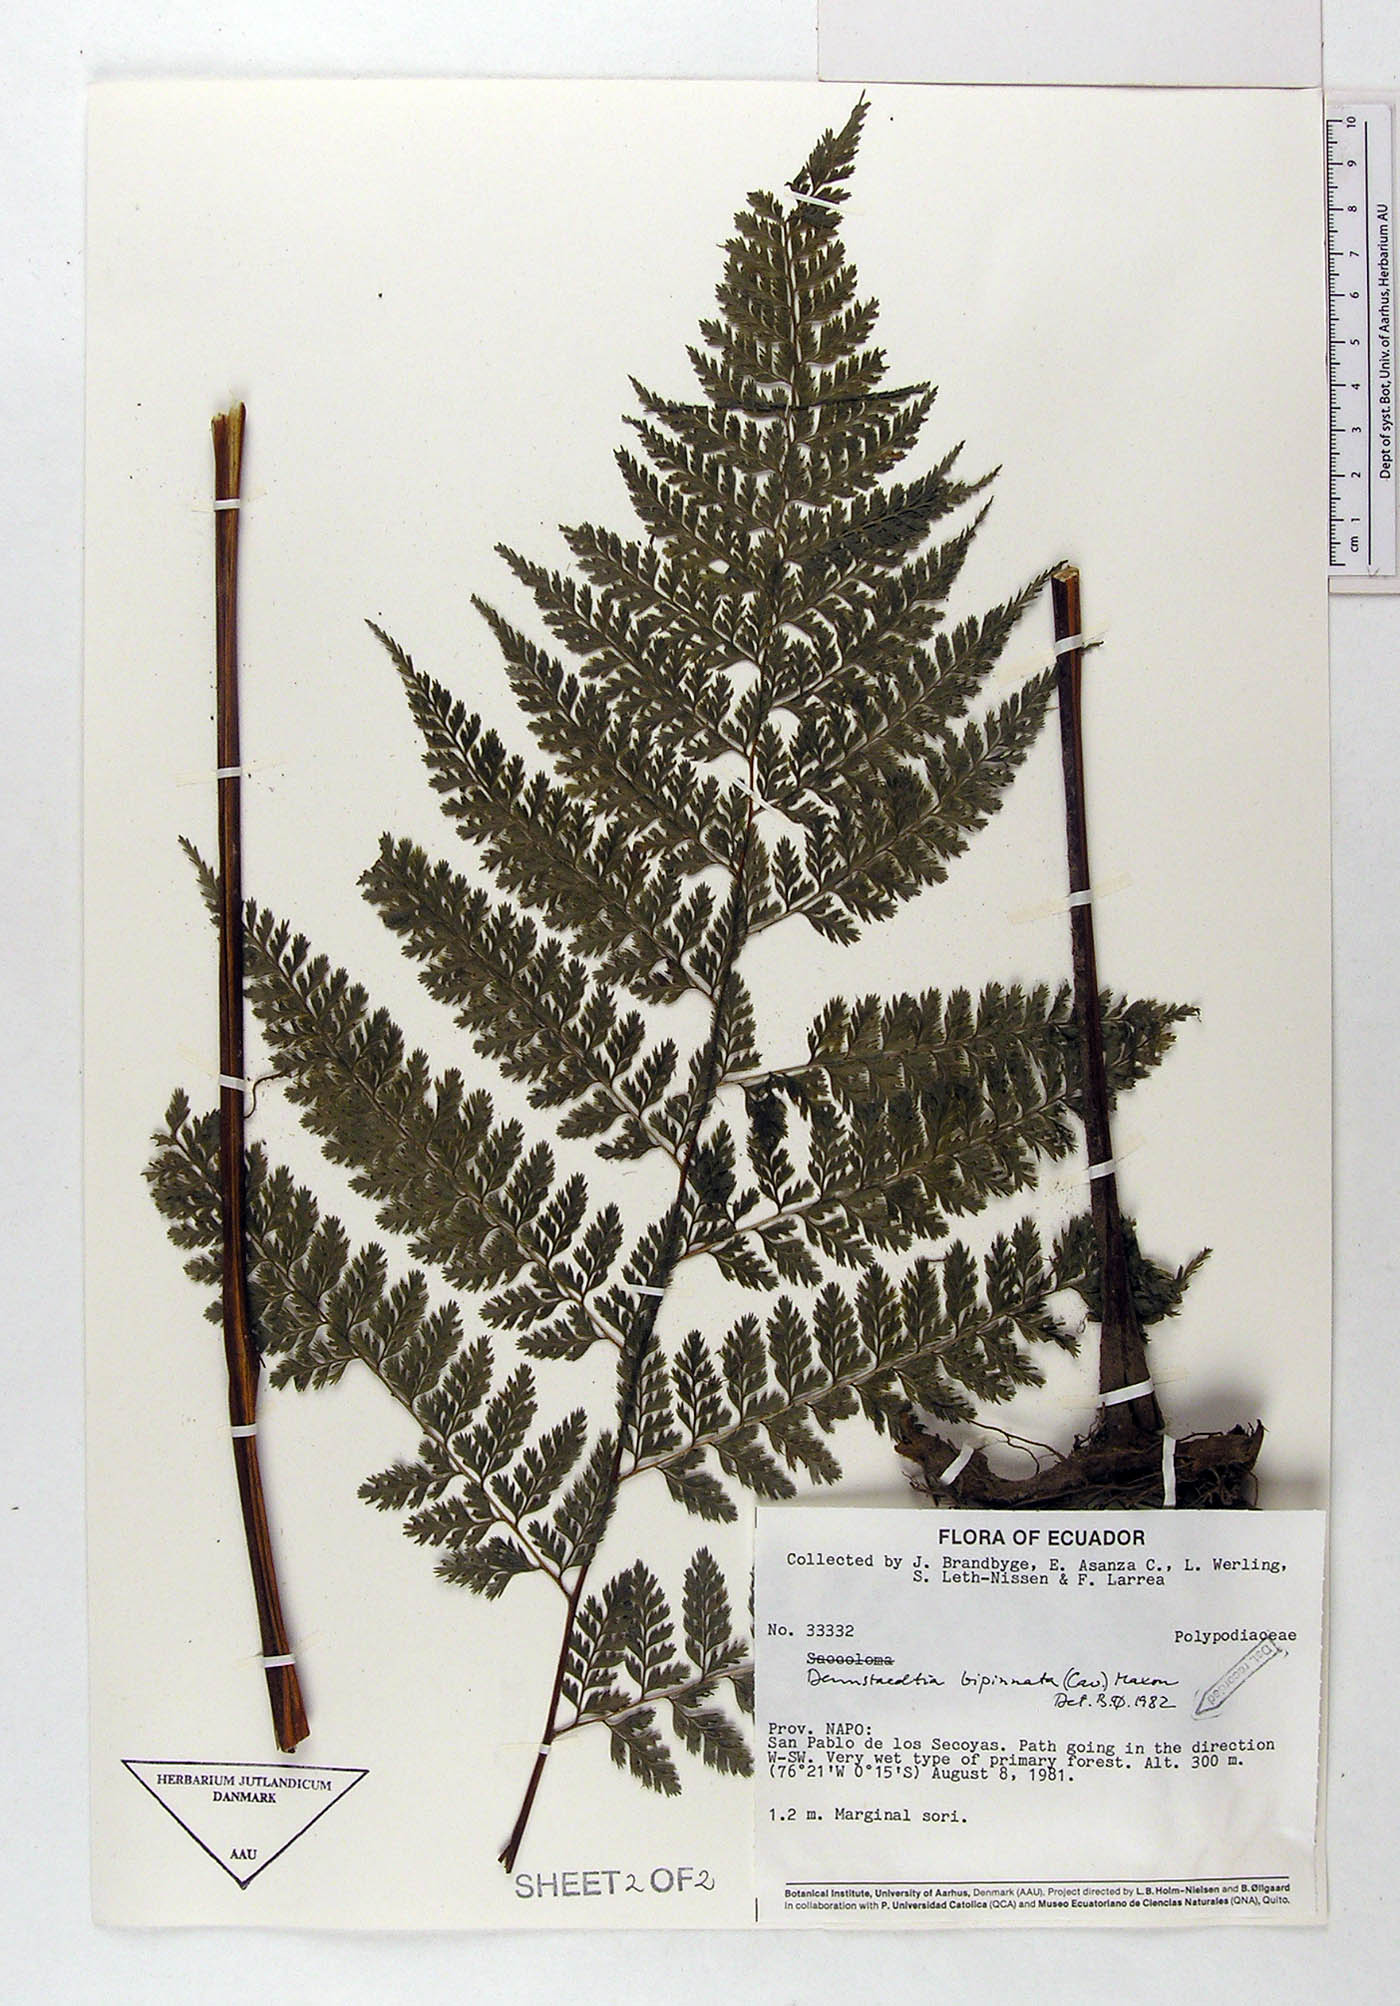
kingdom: Plantae
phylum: Tracheophyta
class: Polypodiopsida
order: Polypodiales
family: Dennstaedtiaceae
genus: Mucura
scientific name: Mucura bipinnata
